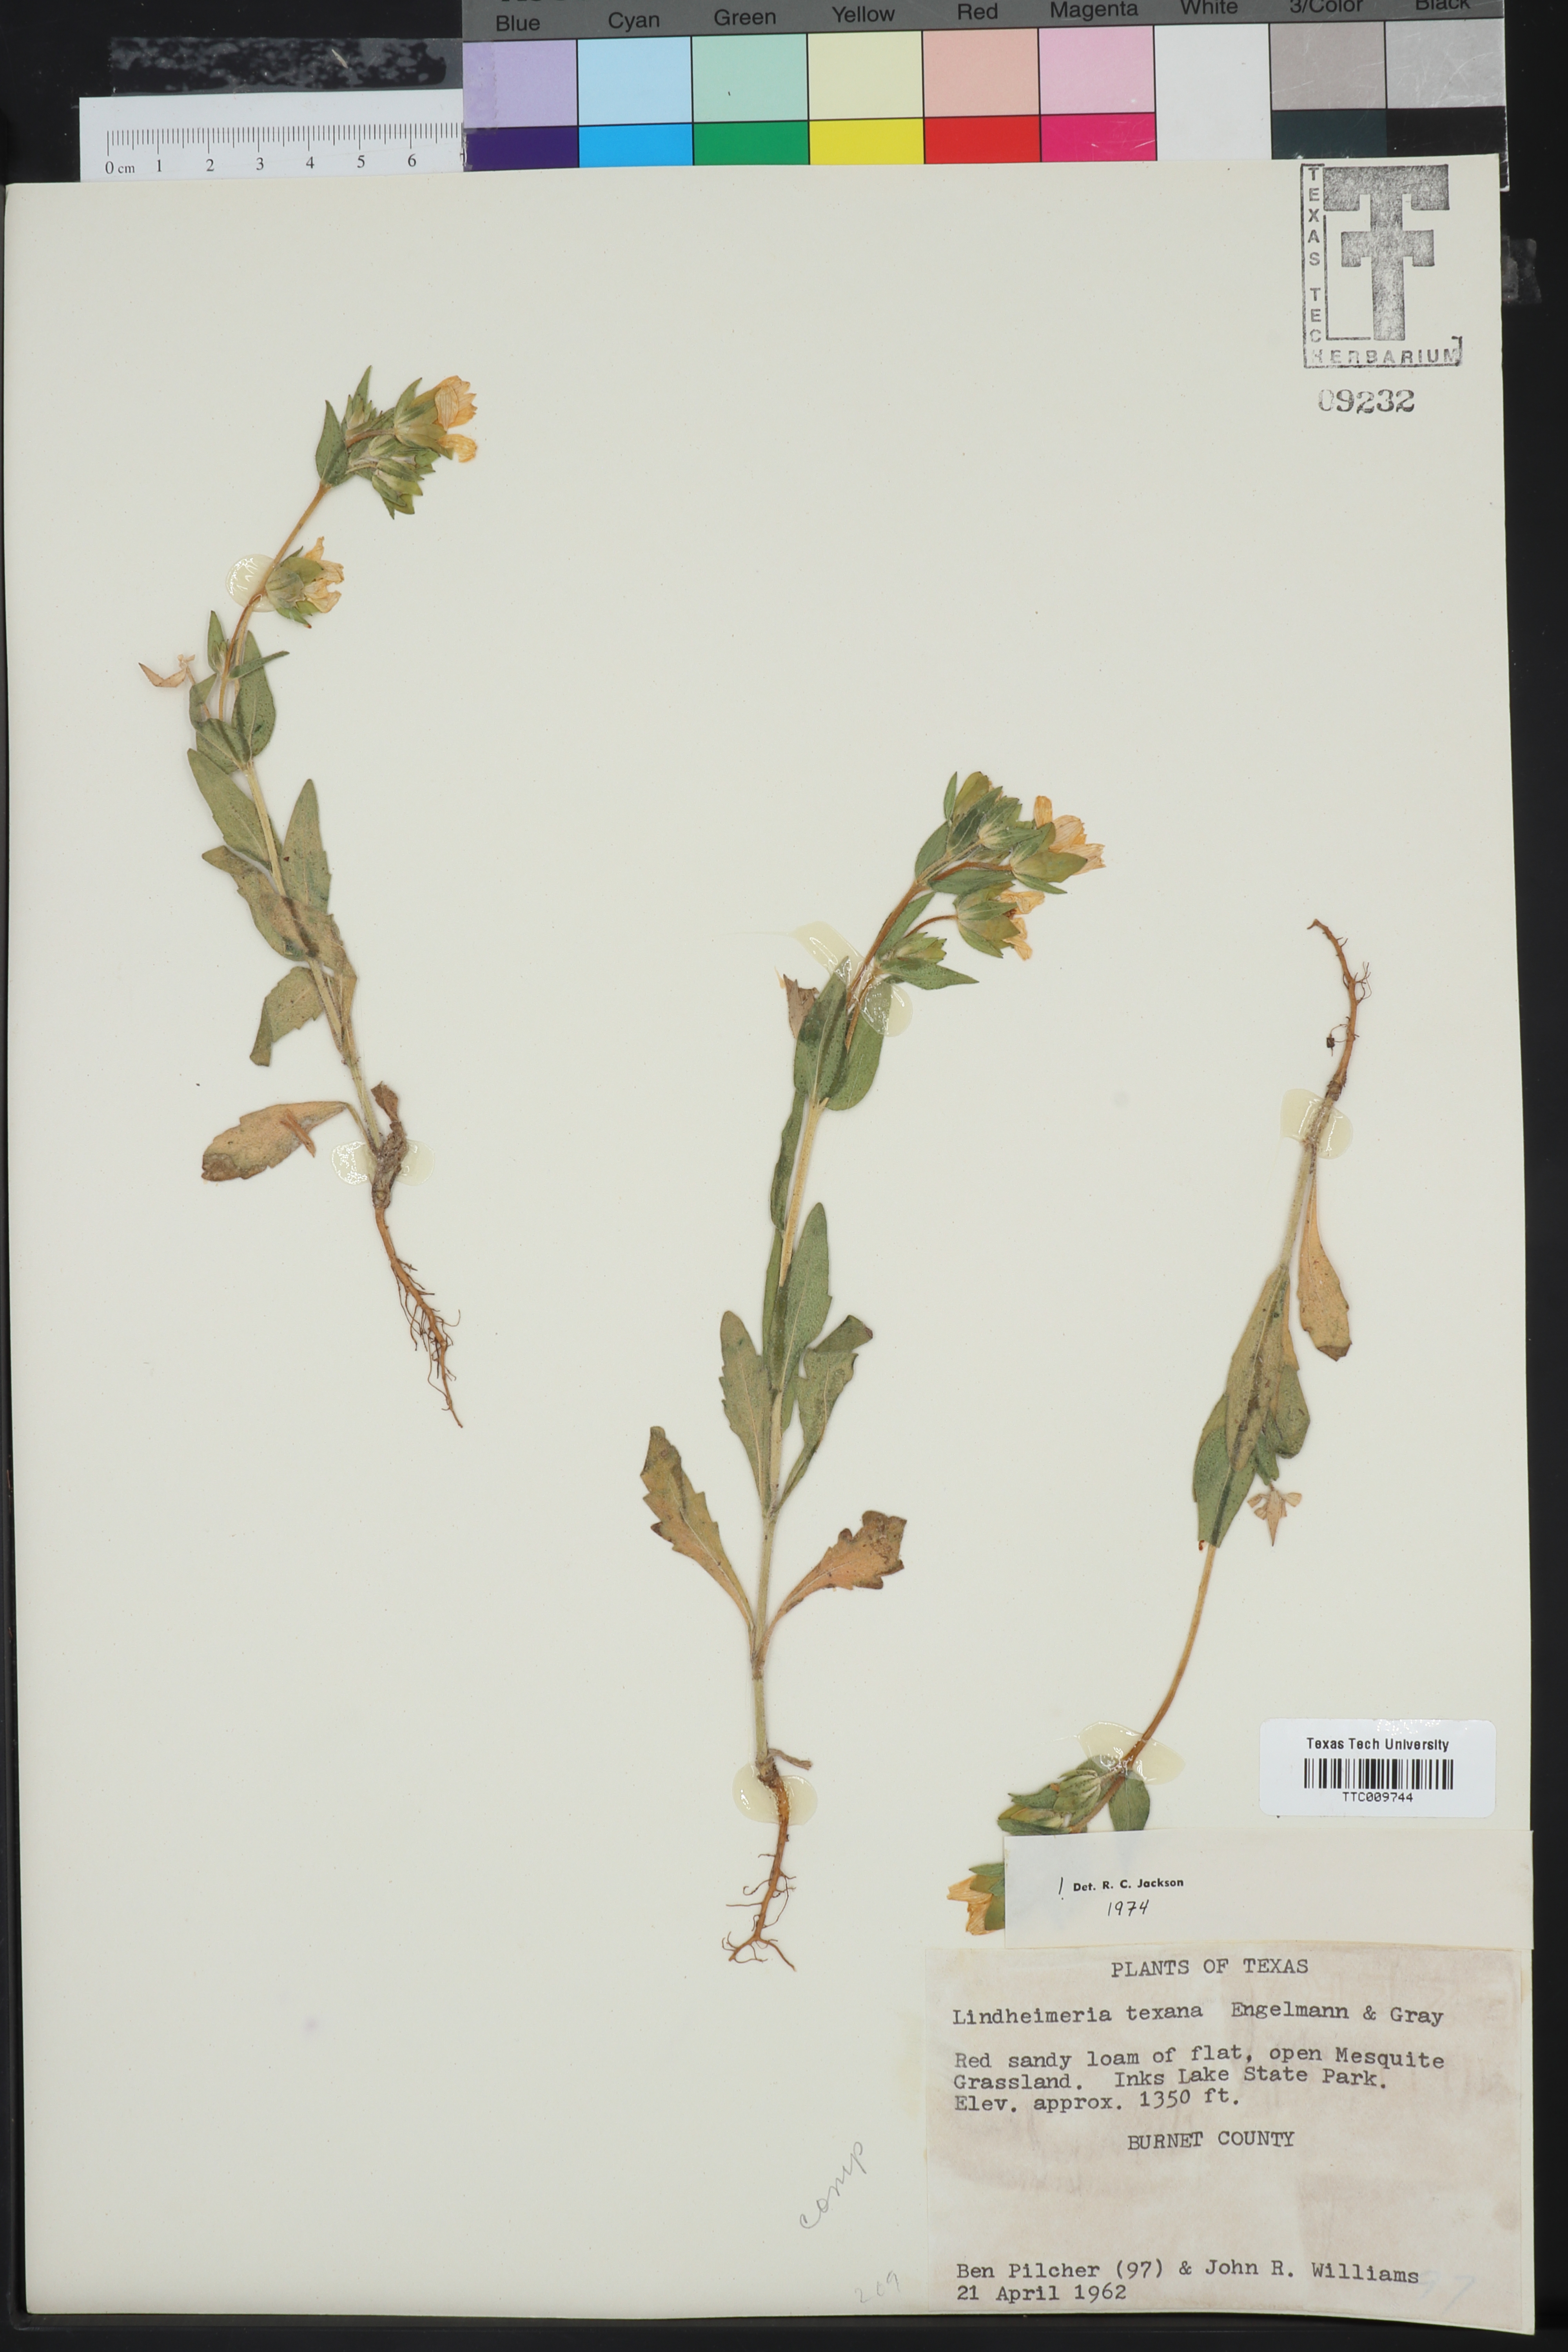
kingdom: Plantae
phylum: Tracheophyta
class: Magnoliopsida
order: Asterales
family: Asteraceae
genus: Lindheimera
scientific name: Lindheimera texana
